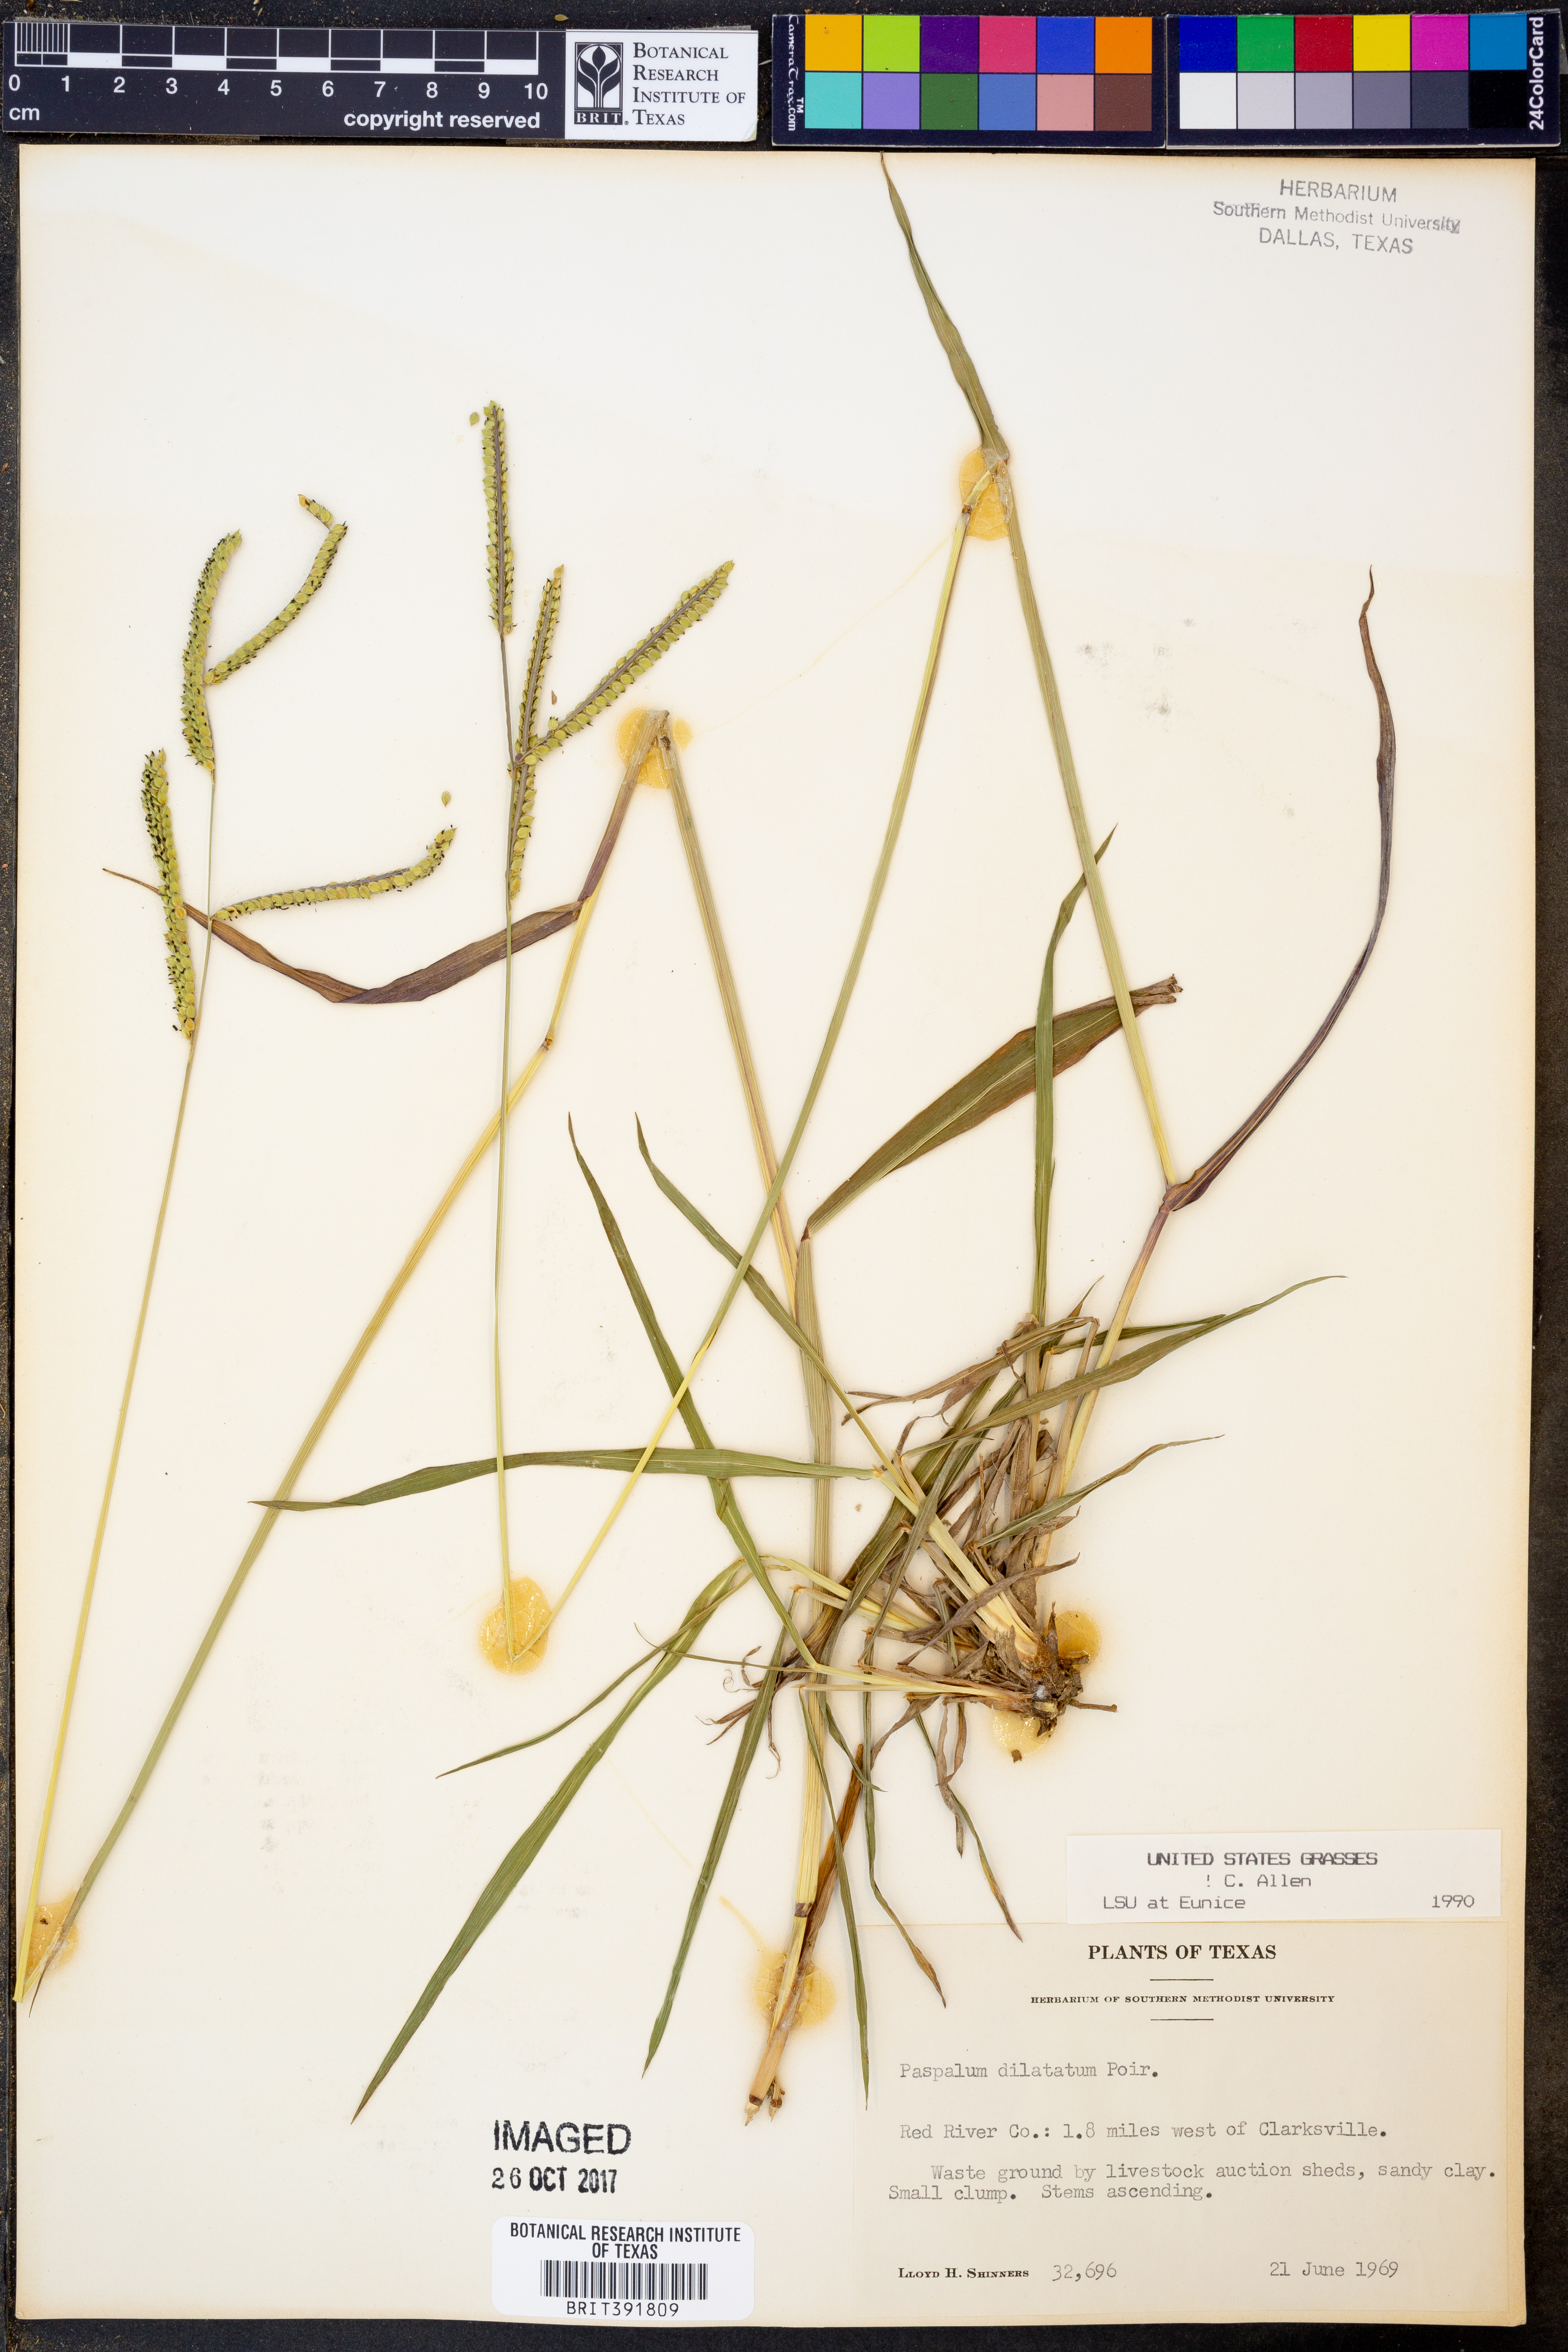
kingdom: Plantae
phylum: Tracheophyta
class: Liliopsida
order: Poales
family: Poaceae
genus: Paspalum
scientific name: Paspalum dilatatum
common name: Dallisgrass
